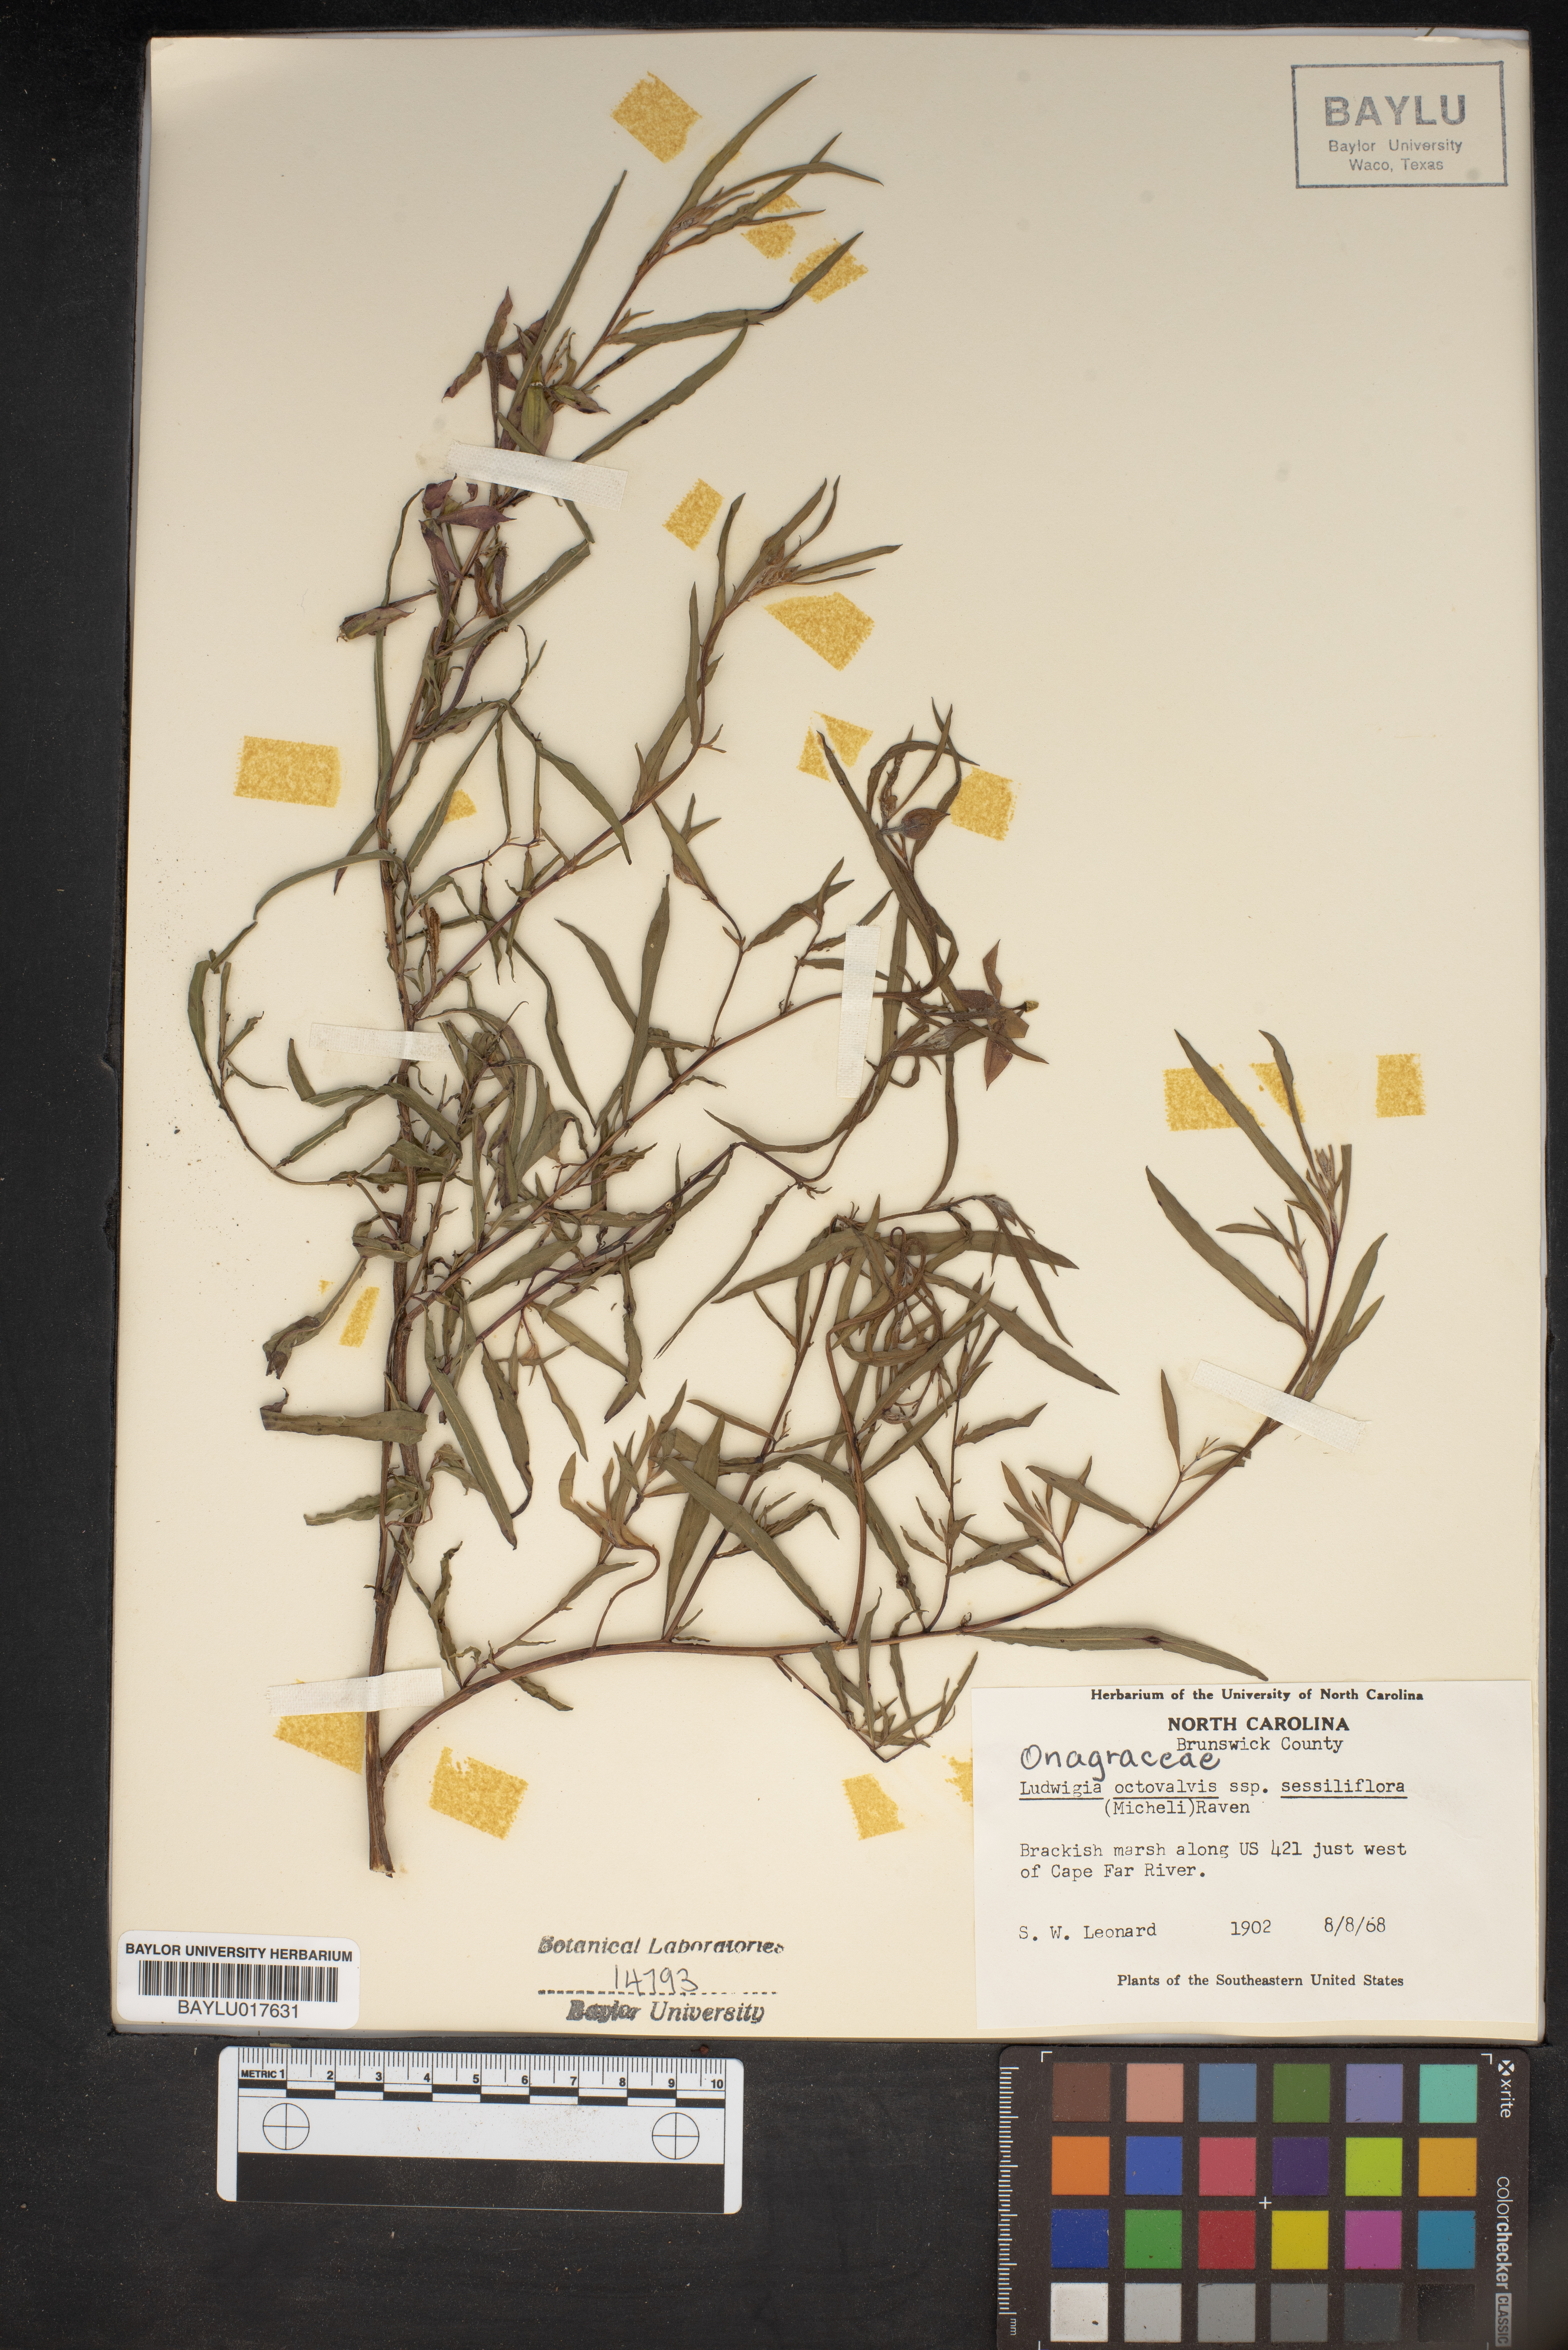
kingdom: Plantae
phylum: Tracheophyta
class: Magnoliopsida
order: Myrtales
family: Onagraceae
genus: Ludwigia
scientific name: Ludwigia octovalvis
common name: Water-primrose
